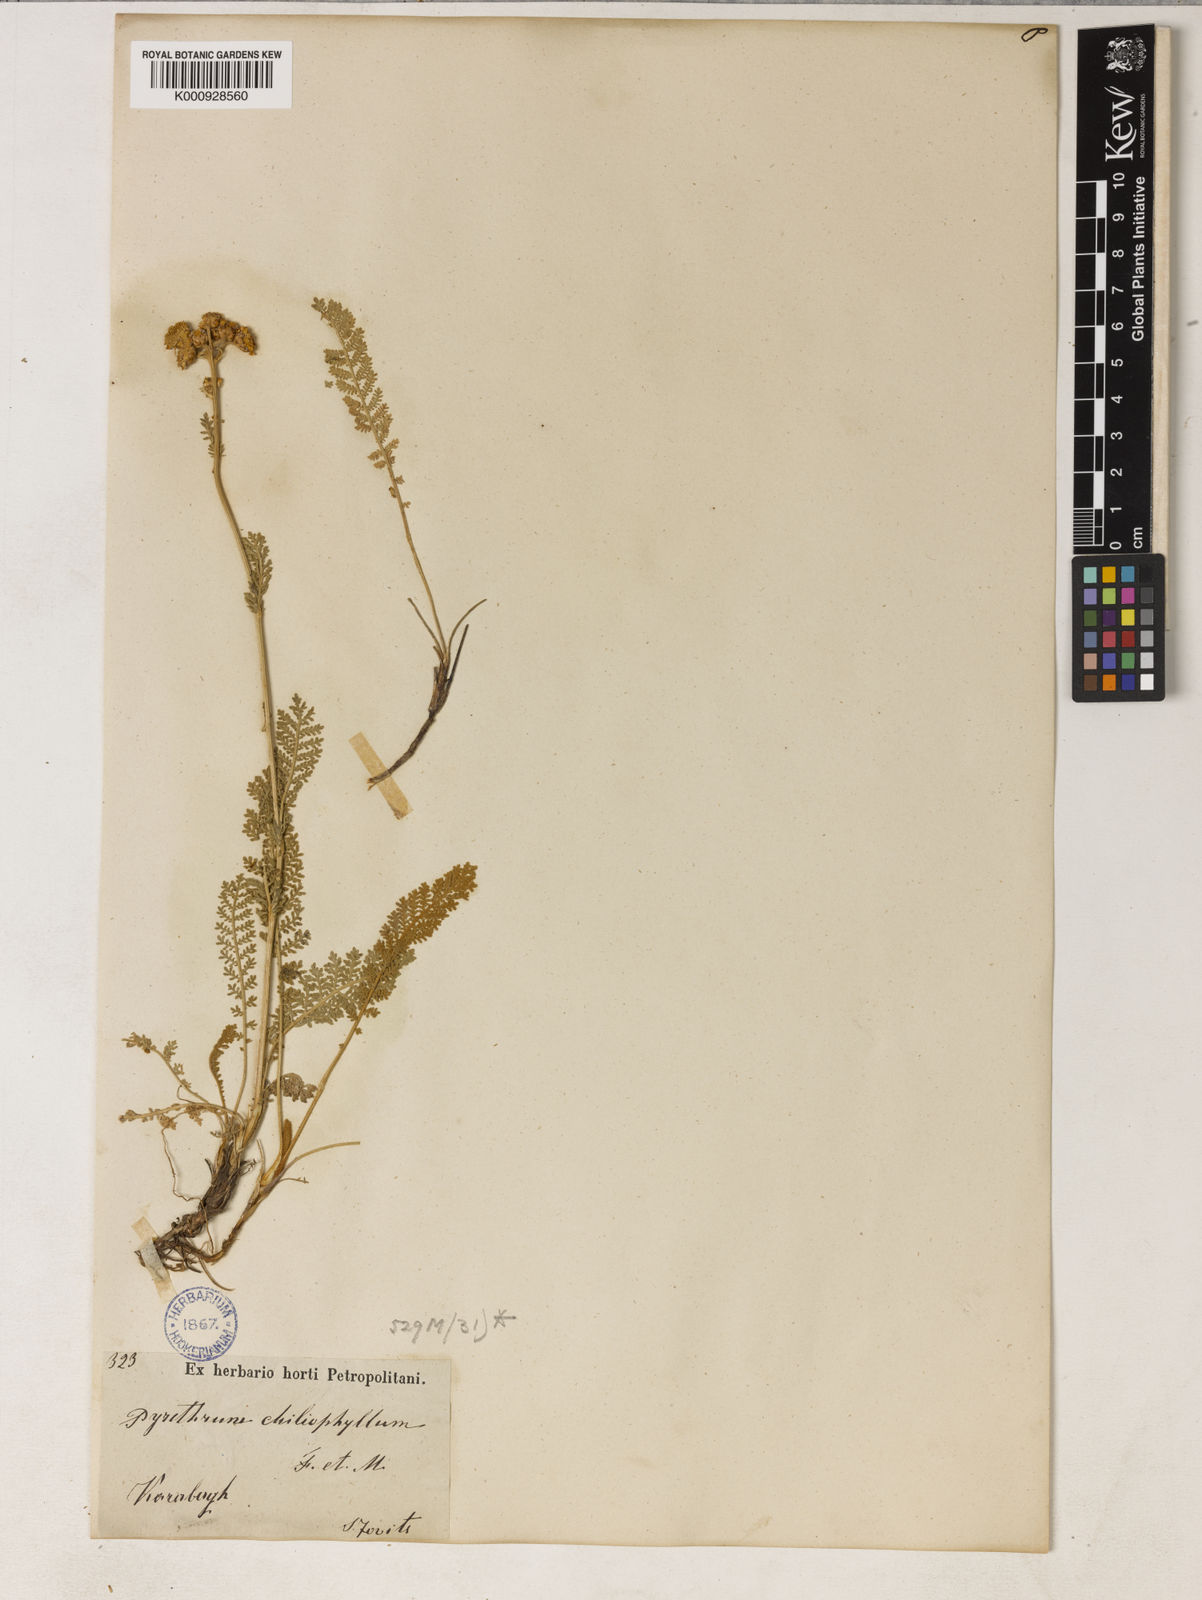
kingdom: Plantae
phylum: Tracheophyta
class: Magnoliopsida
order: Asterales
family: Asteraceae
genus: Tanacetum
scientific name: Tanacetum aureum
